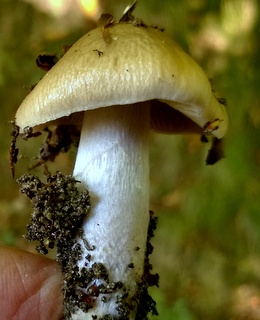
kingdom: Fungi
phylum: Basidiomycota
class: Agaricomycetes
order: Agaricales
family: Cortinariaceae
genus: Cortinarius
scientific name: Cortinarius elatior
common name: høj slørhat
